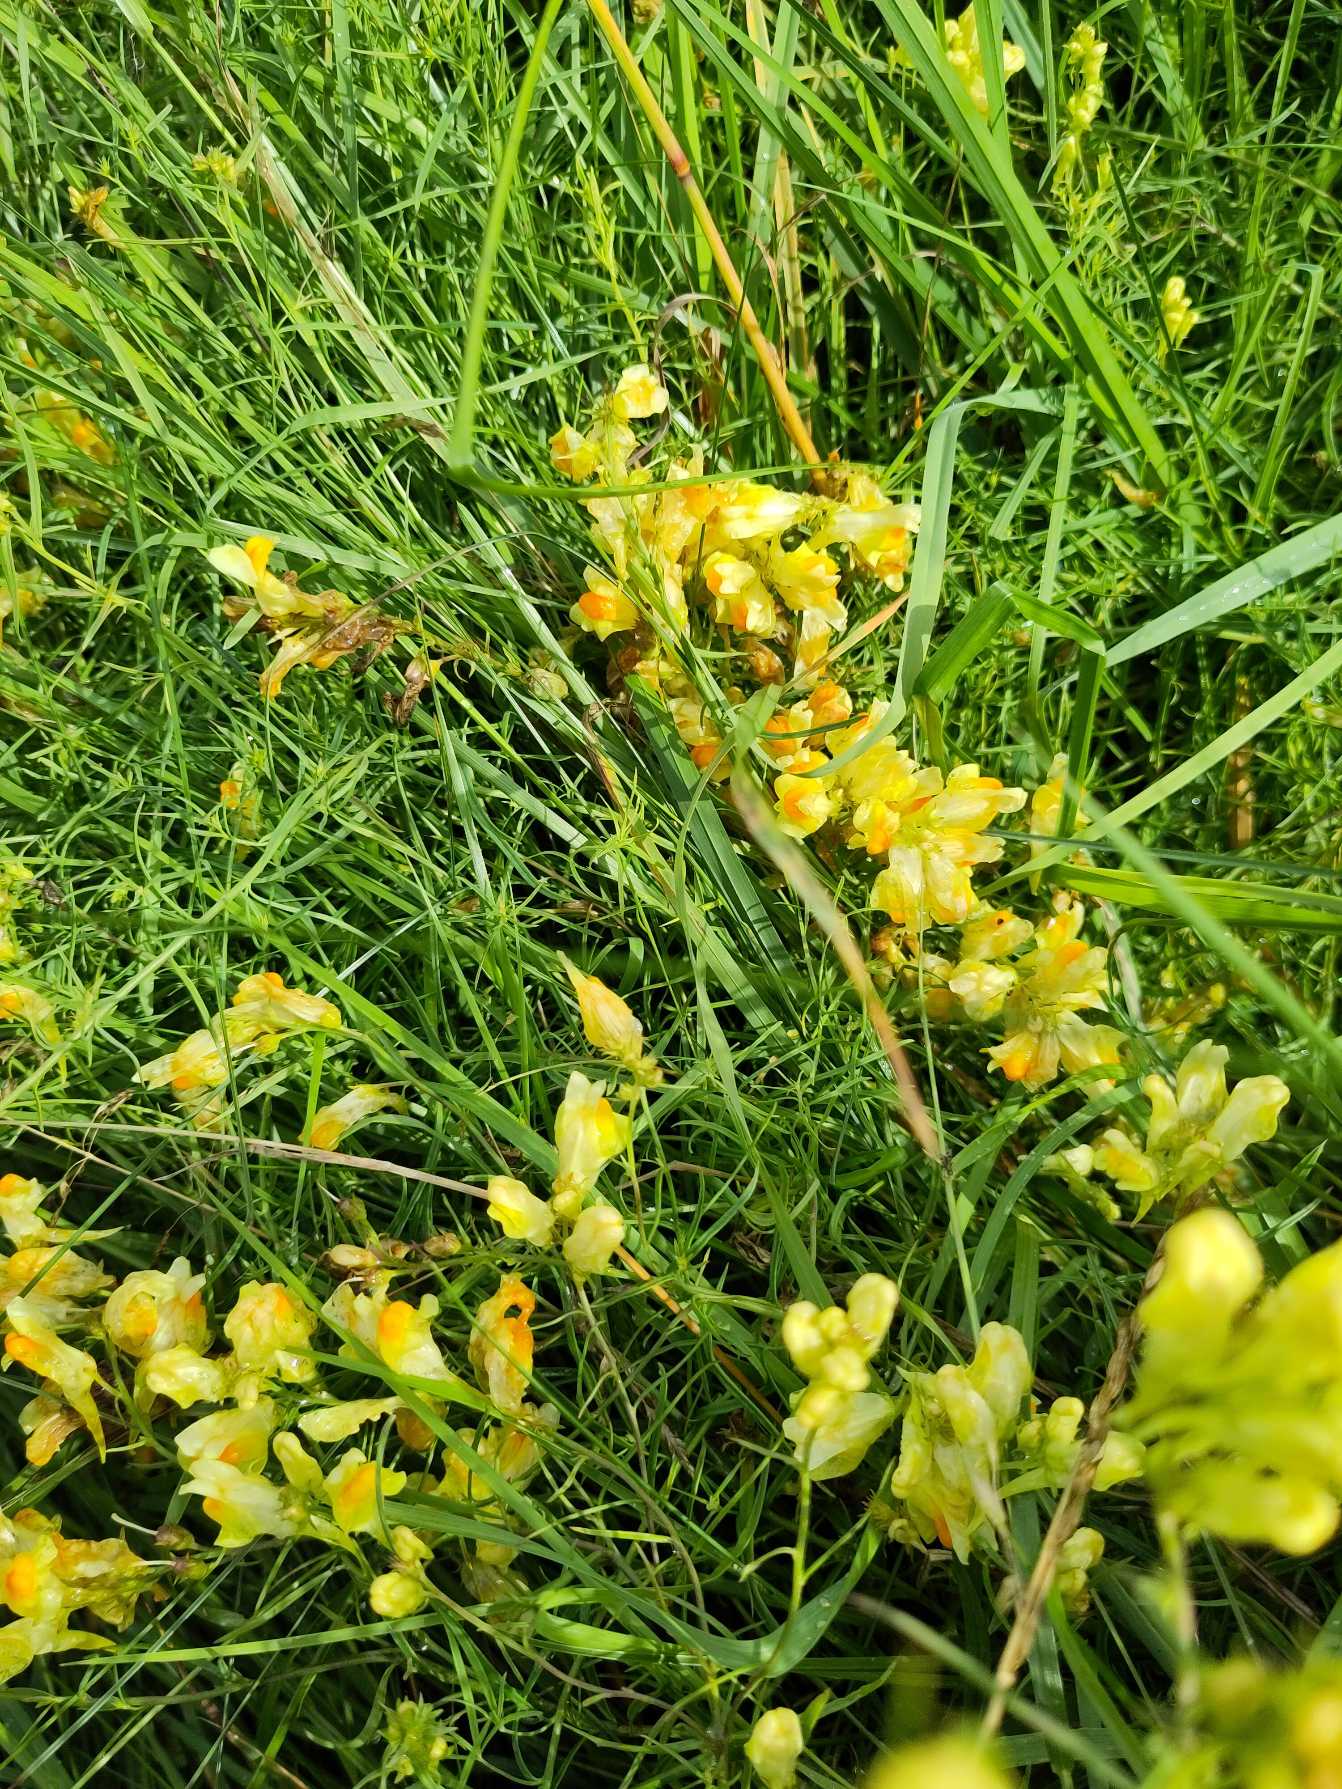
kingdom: Plantae
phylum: Tracheophyta
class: Magnoliopsida
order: Lamiales
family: Plantaginaceae
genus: Linaria
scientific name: Linaria vulgaris
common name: Almindelig torskemund
